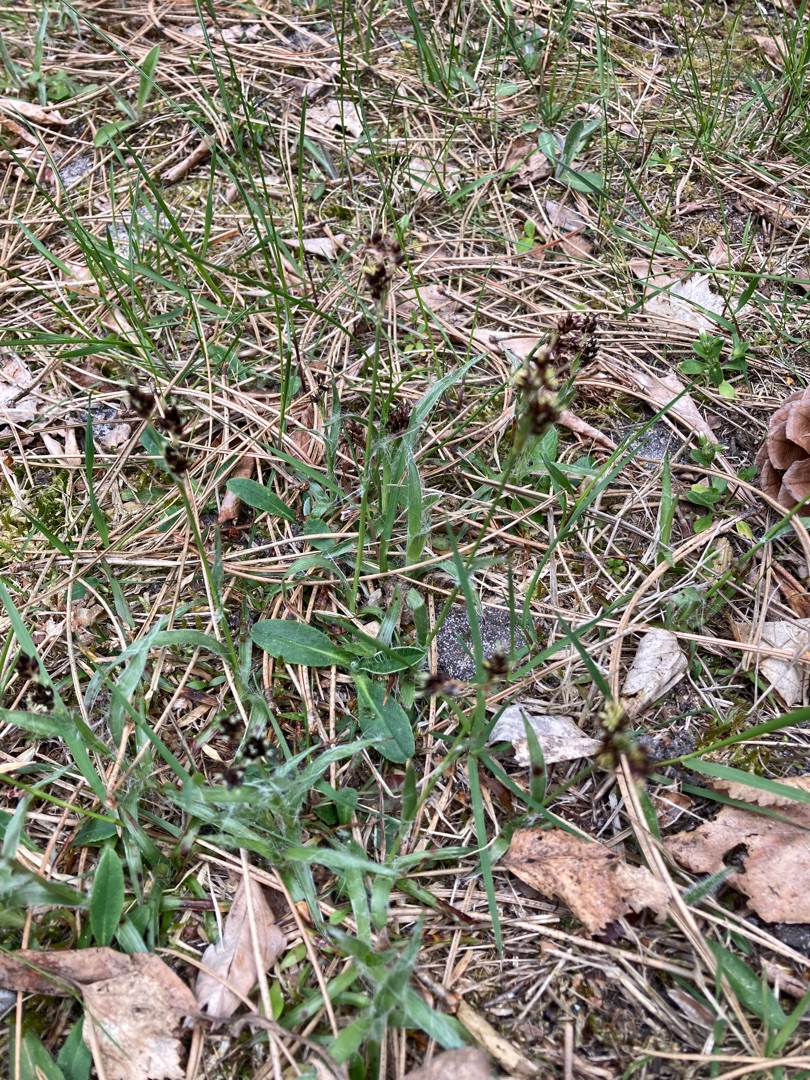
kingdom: Plantae
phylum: Tracheophyta
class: Liliopsida
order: Poales
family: Juncaceae
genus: Luzula
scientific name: Luzula campestris
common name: Mark-frytle
